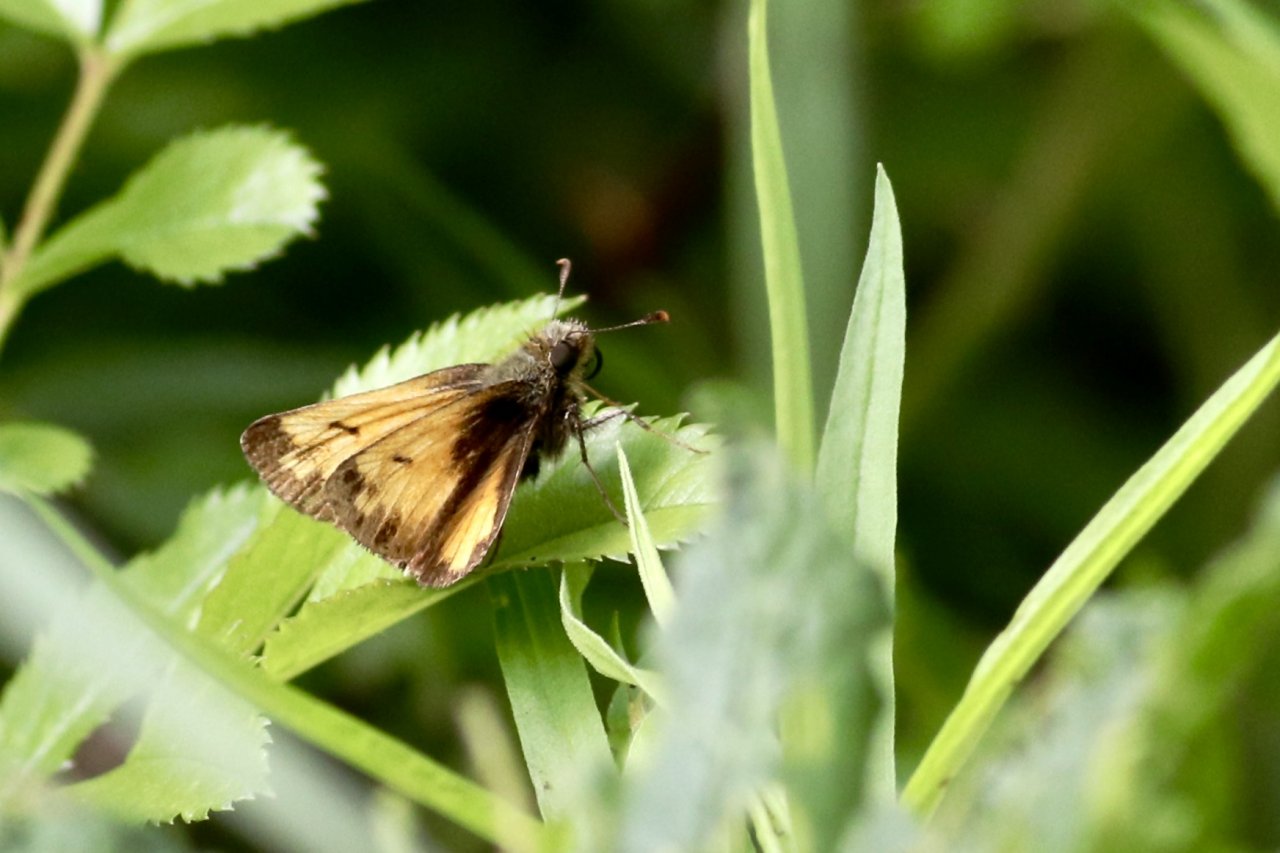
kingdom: Animalia
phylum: Arthropoda
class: Insecta
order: Lepidoptera
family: Hesperiidae
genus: Lon
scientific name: Lon hobomok
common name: Hobomok Skipper
